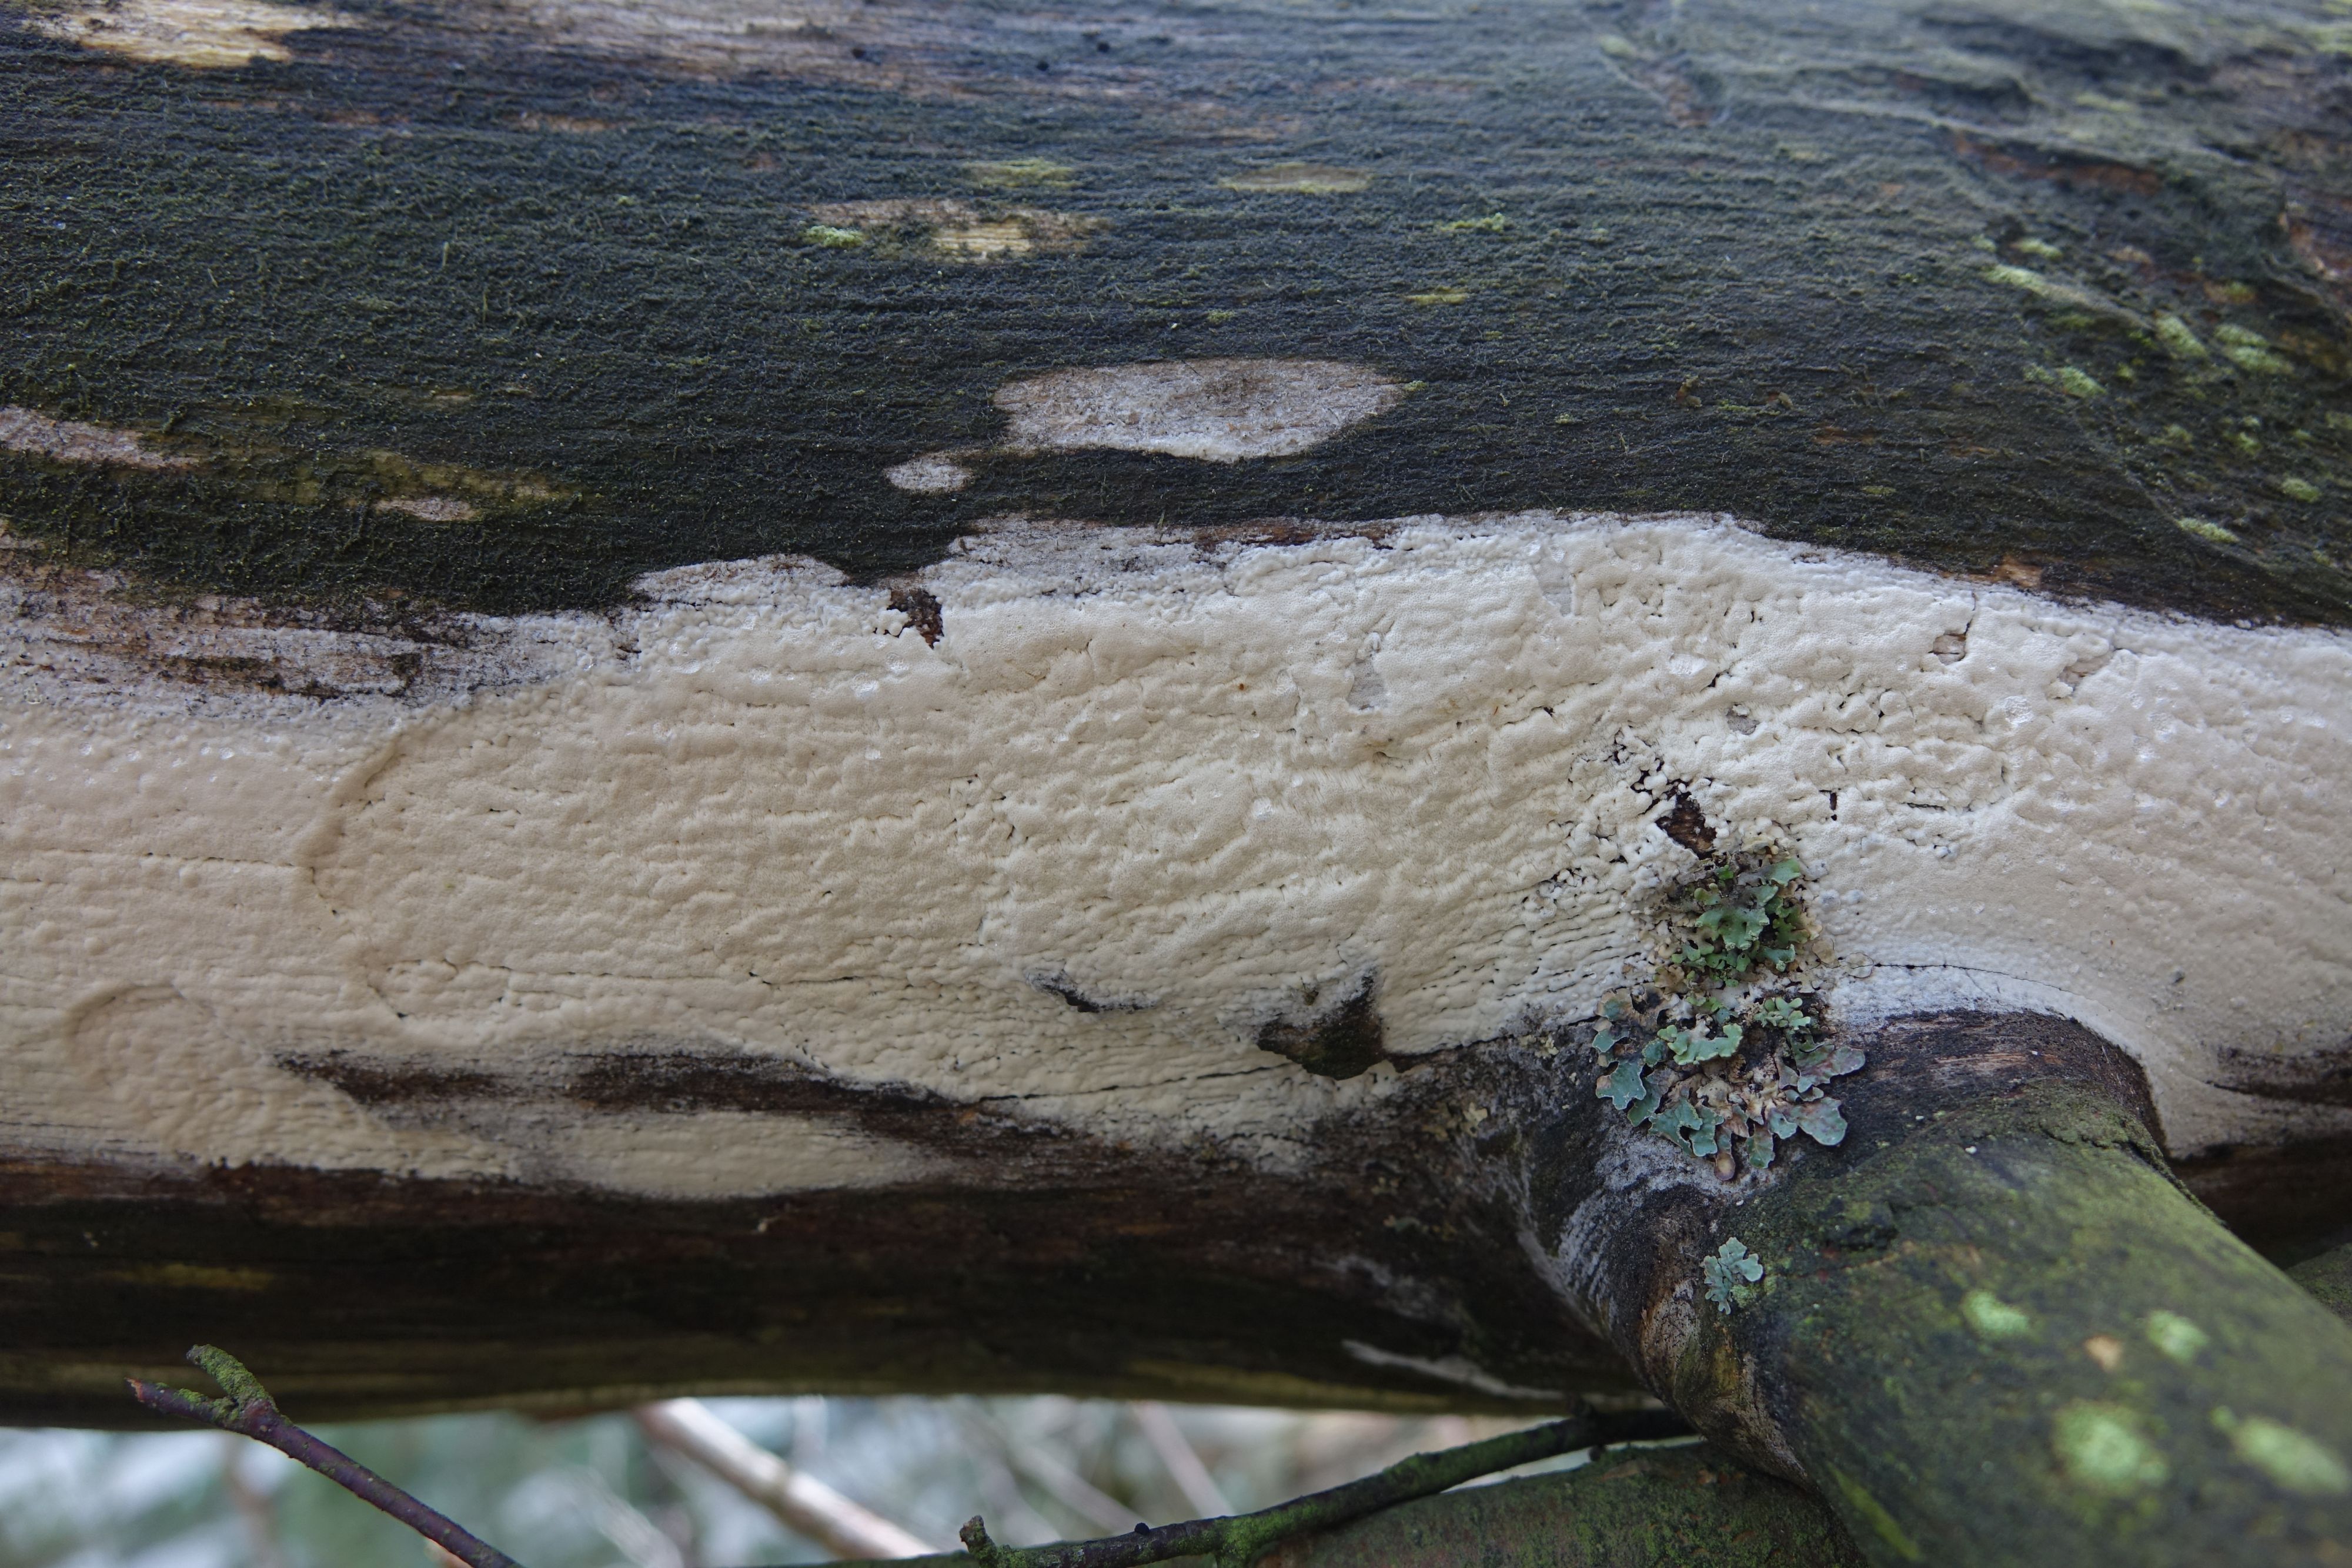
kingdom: Fungi
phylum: Basidiomycota
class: Agaricomycetes
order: Polyporales
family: Fomitopsidaceae
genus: Daedalea
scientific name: Daedalea xantha
